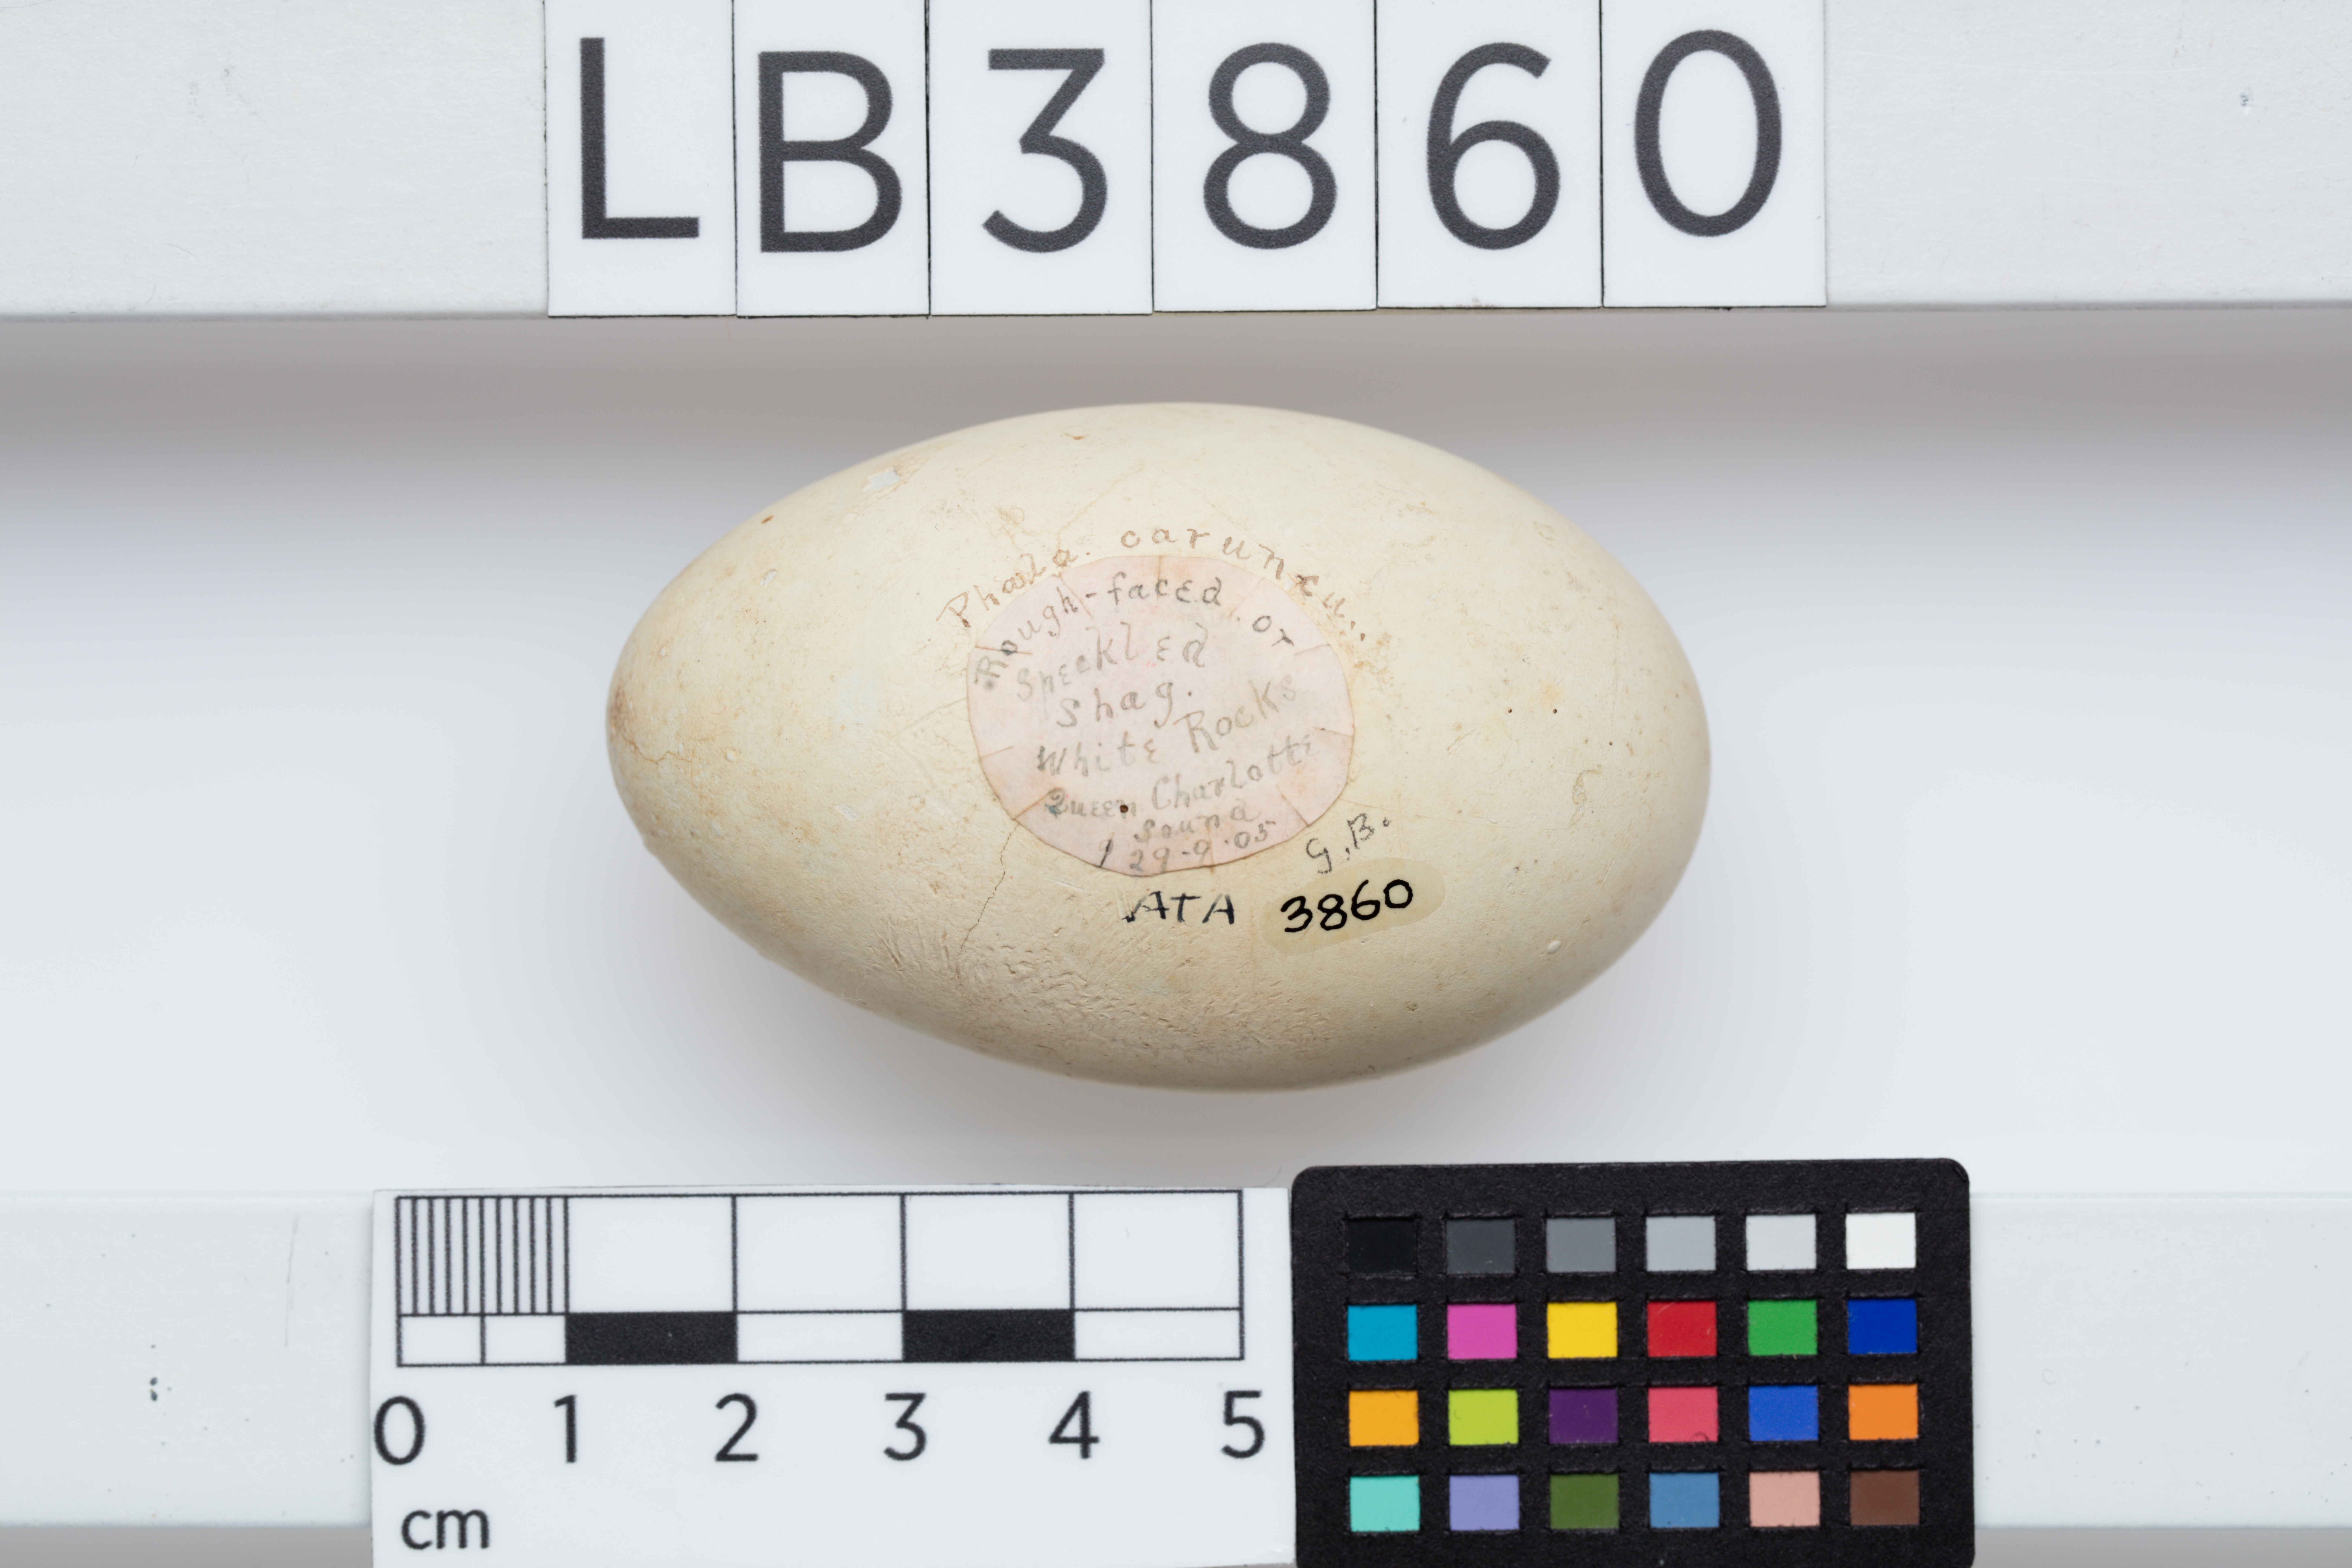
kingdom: Animalia
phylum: Chordata
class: Aves
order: Suliformes
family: Phalacrocoracidae
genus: Leucocarbo
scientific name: Leucocarbo carunculatus
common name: Rough-faced shag
